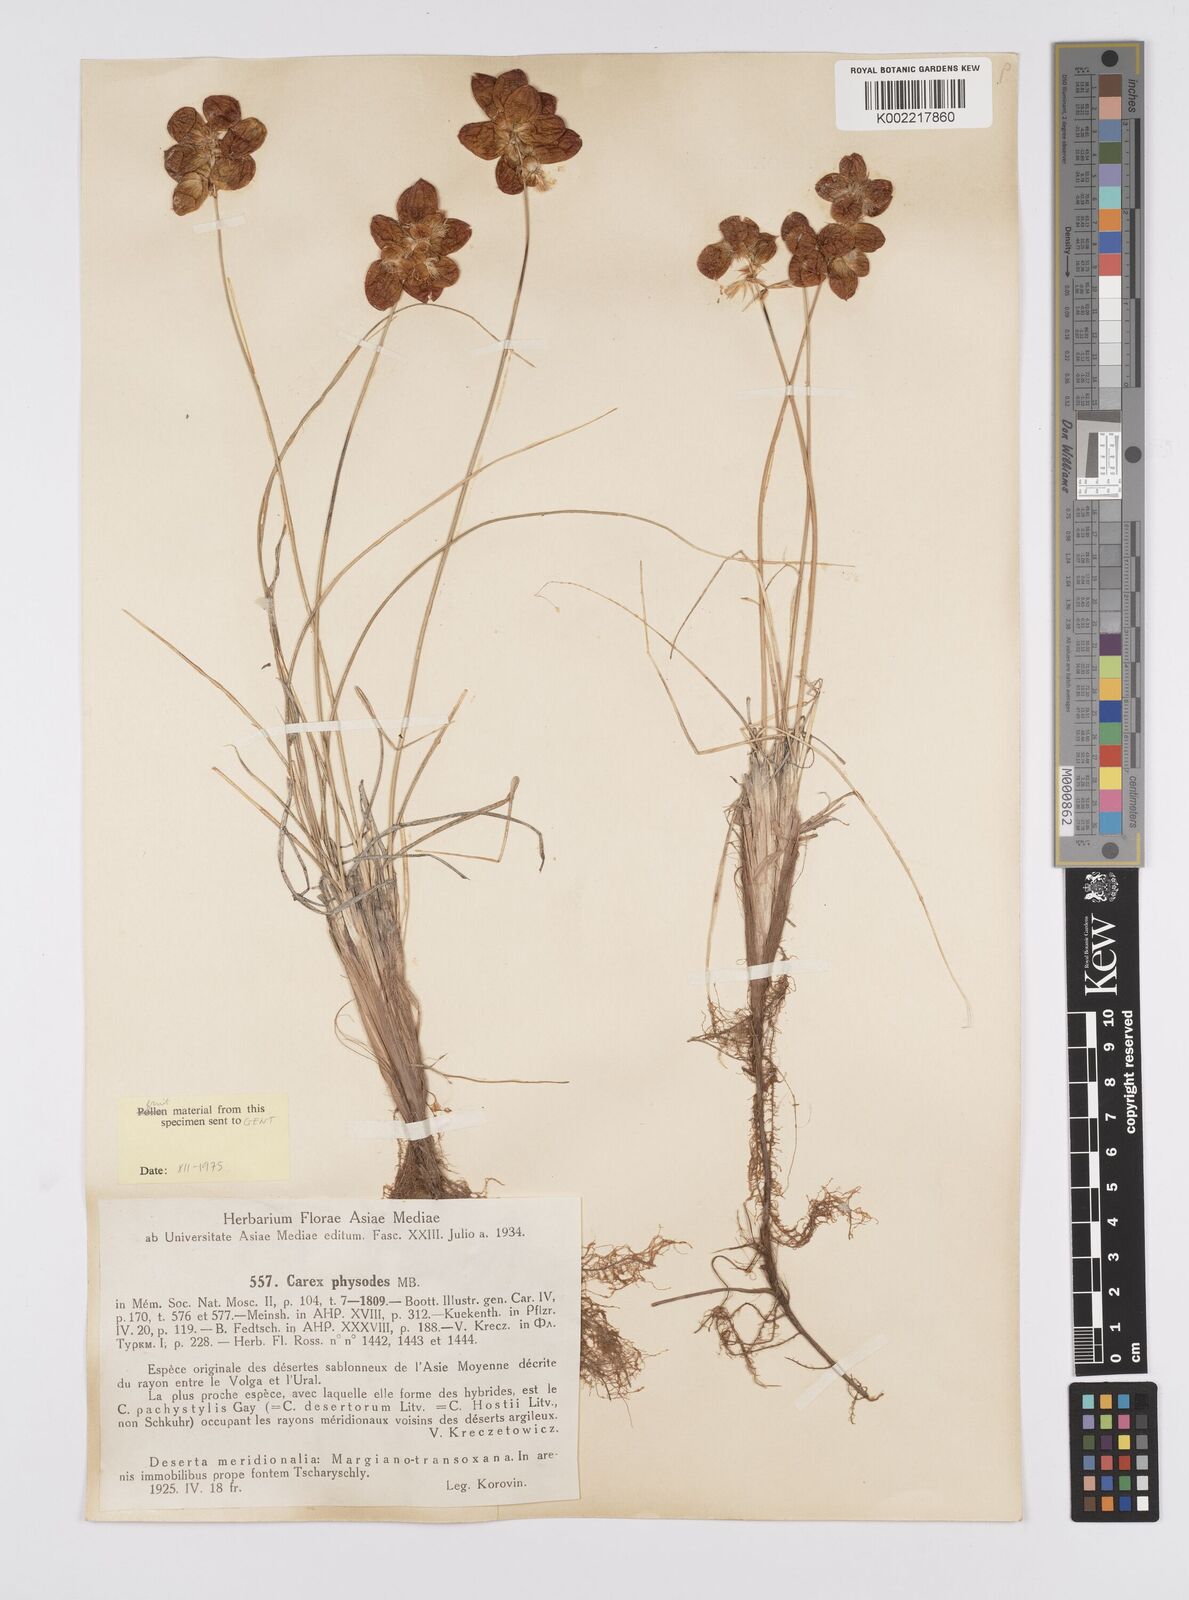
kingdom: Plantae
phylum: Tracheophyta
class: Liliopsida
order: Poales
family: Cyperaceae
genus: Carex
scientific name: Carex physodes
